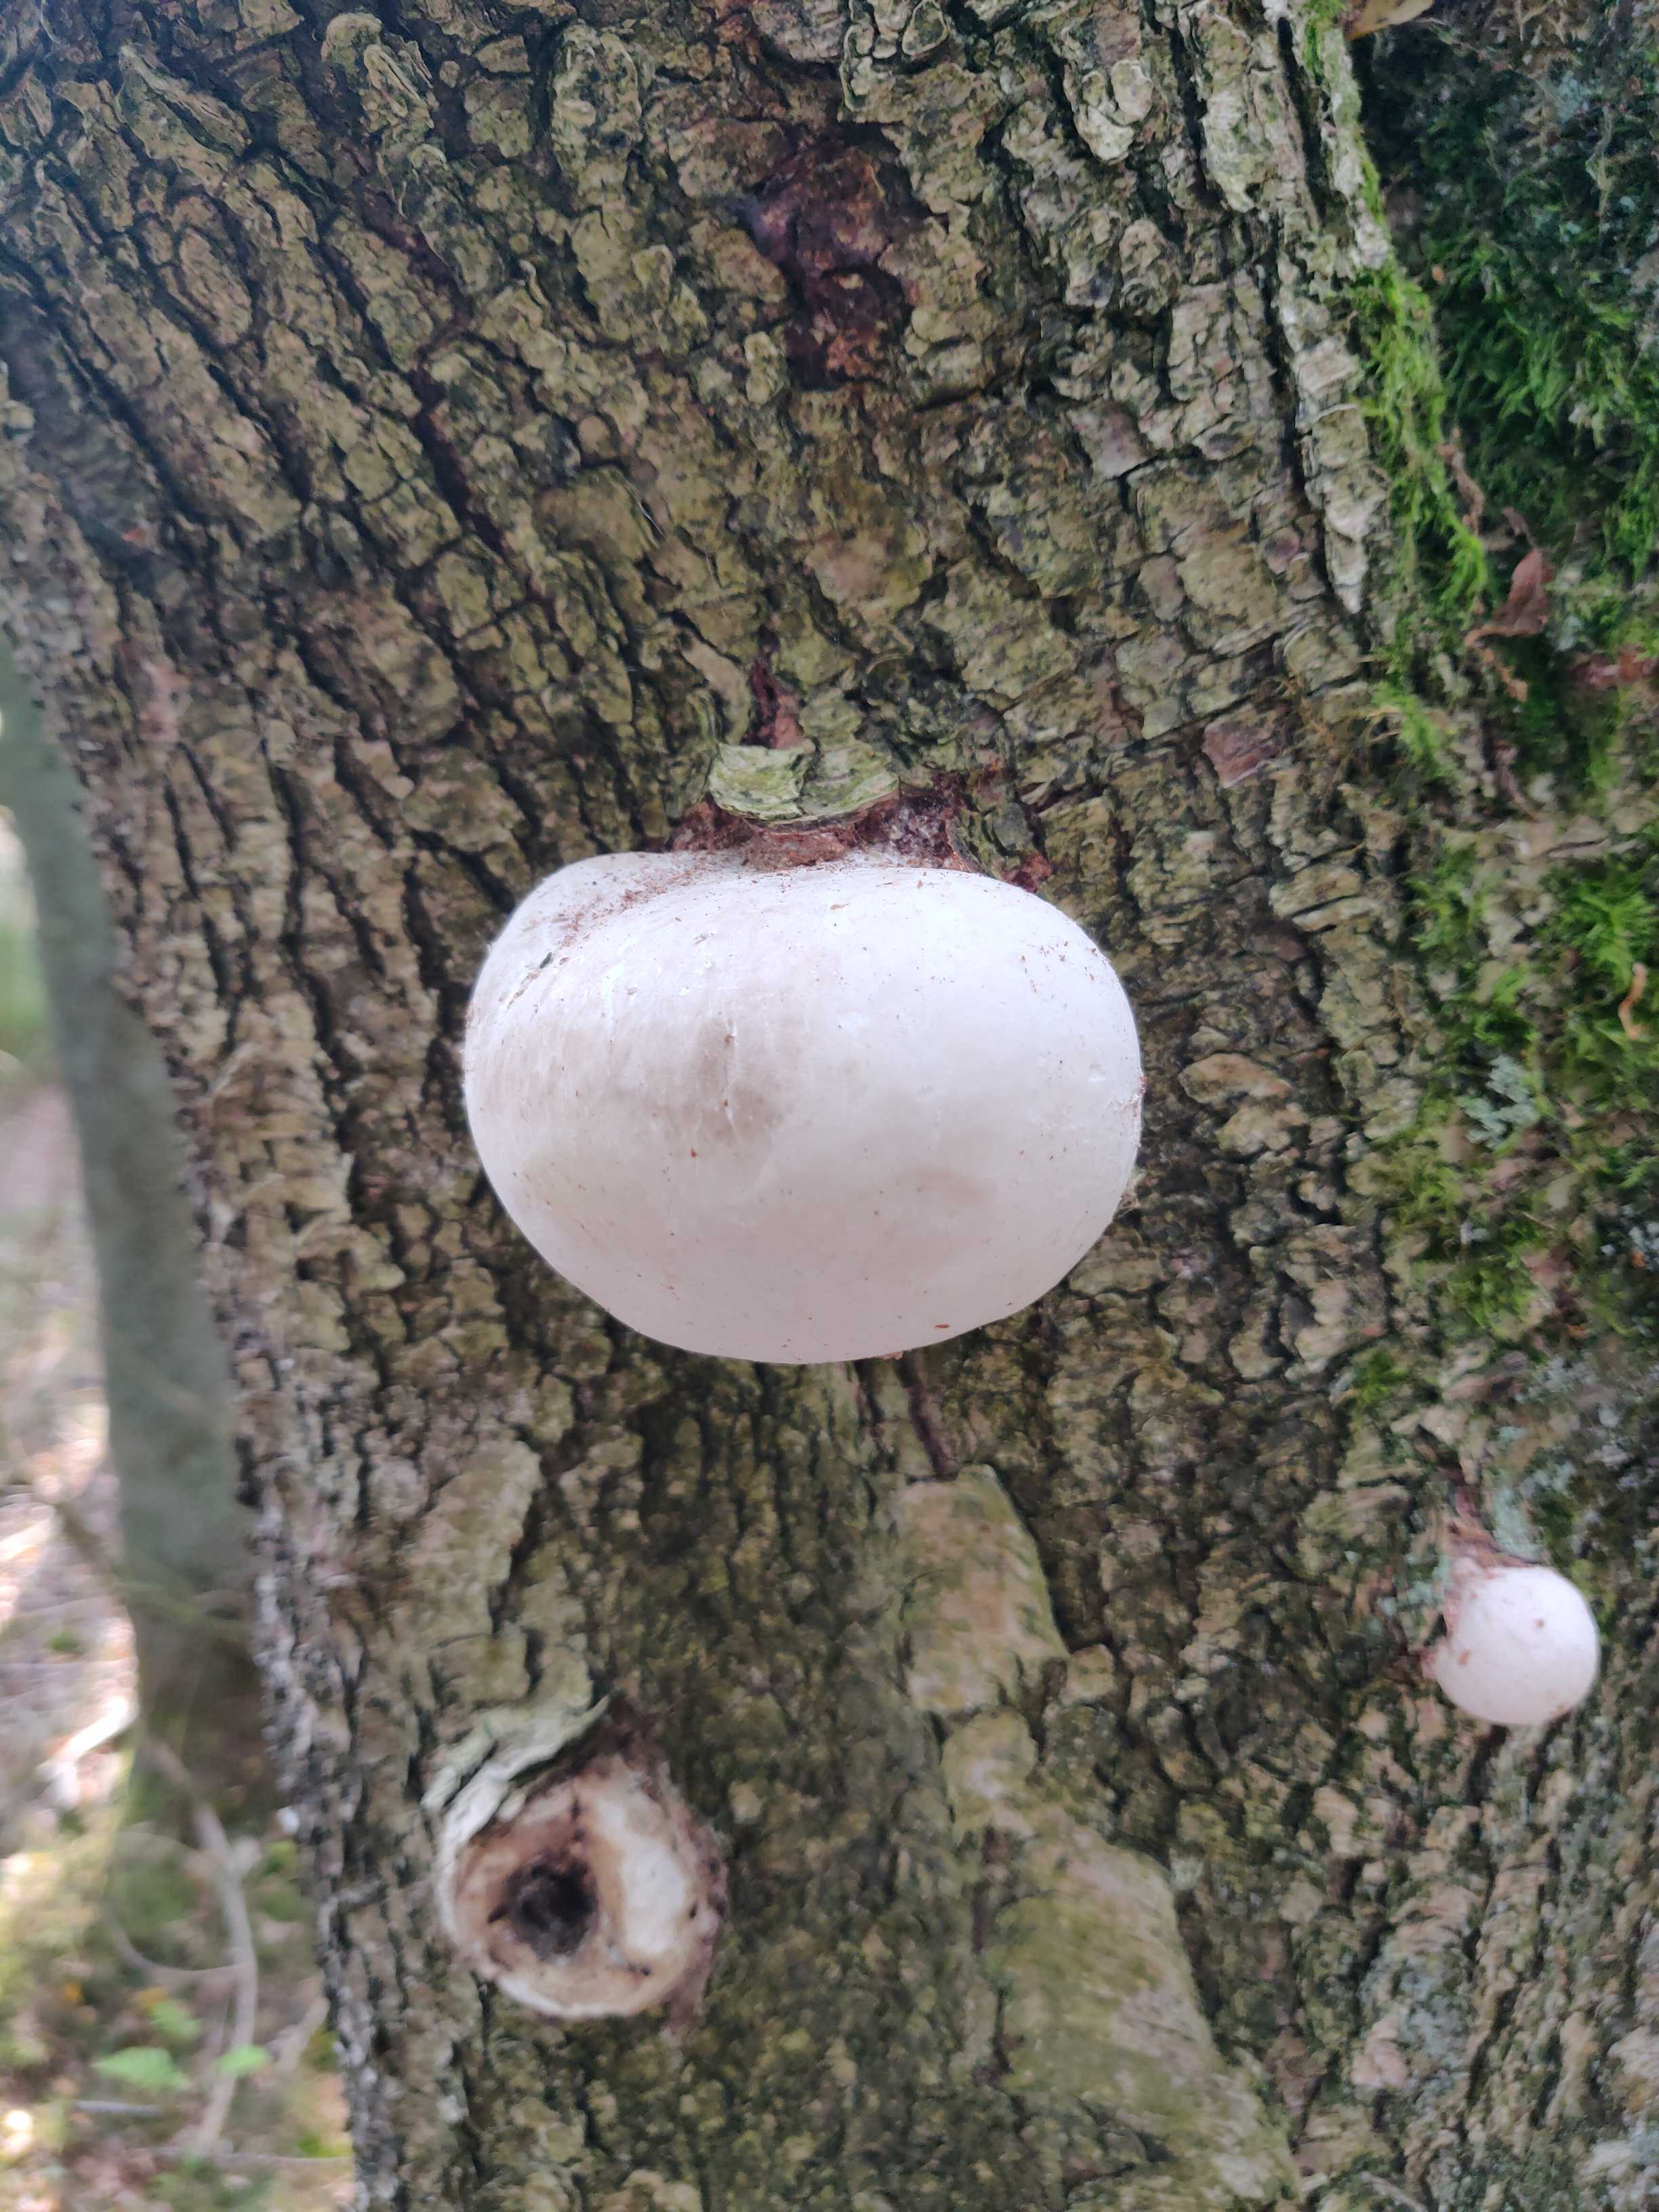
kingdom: Fungi
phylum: Basidiomycota
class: Agaricomycetes
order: Polyporales
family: Fomitopsidaceae
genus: Fomitopsis
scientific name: Fomitopsis betulina
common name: birkeporesvamp
